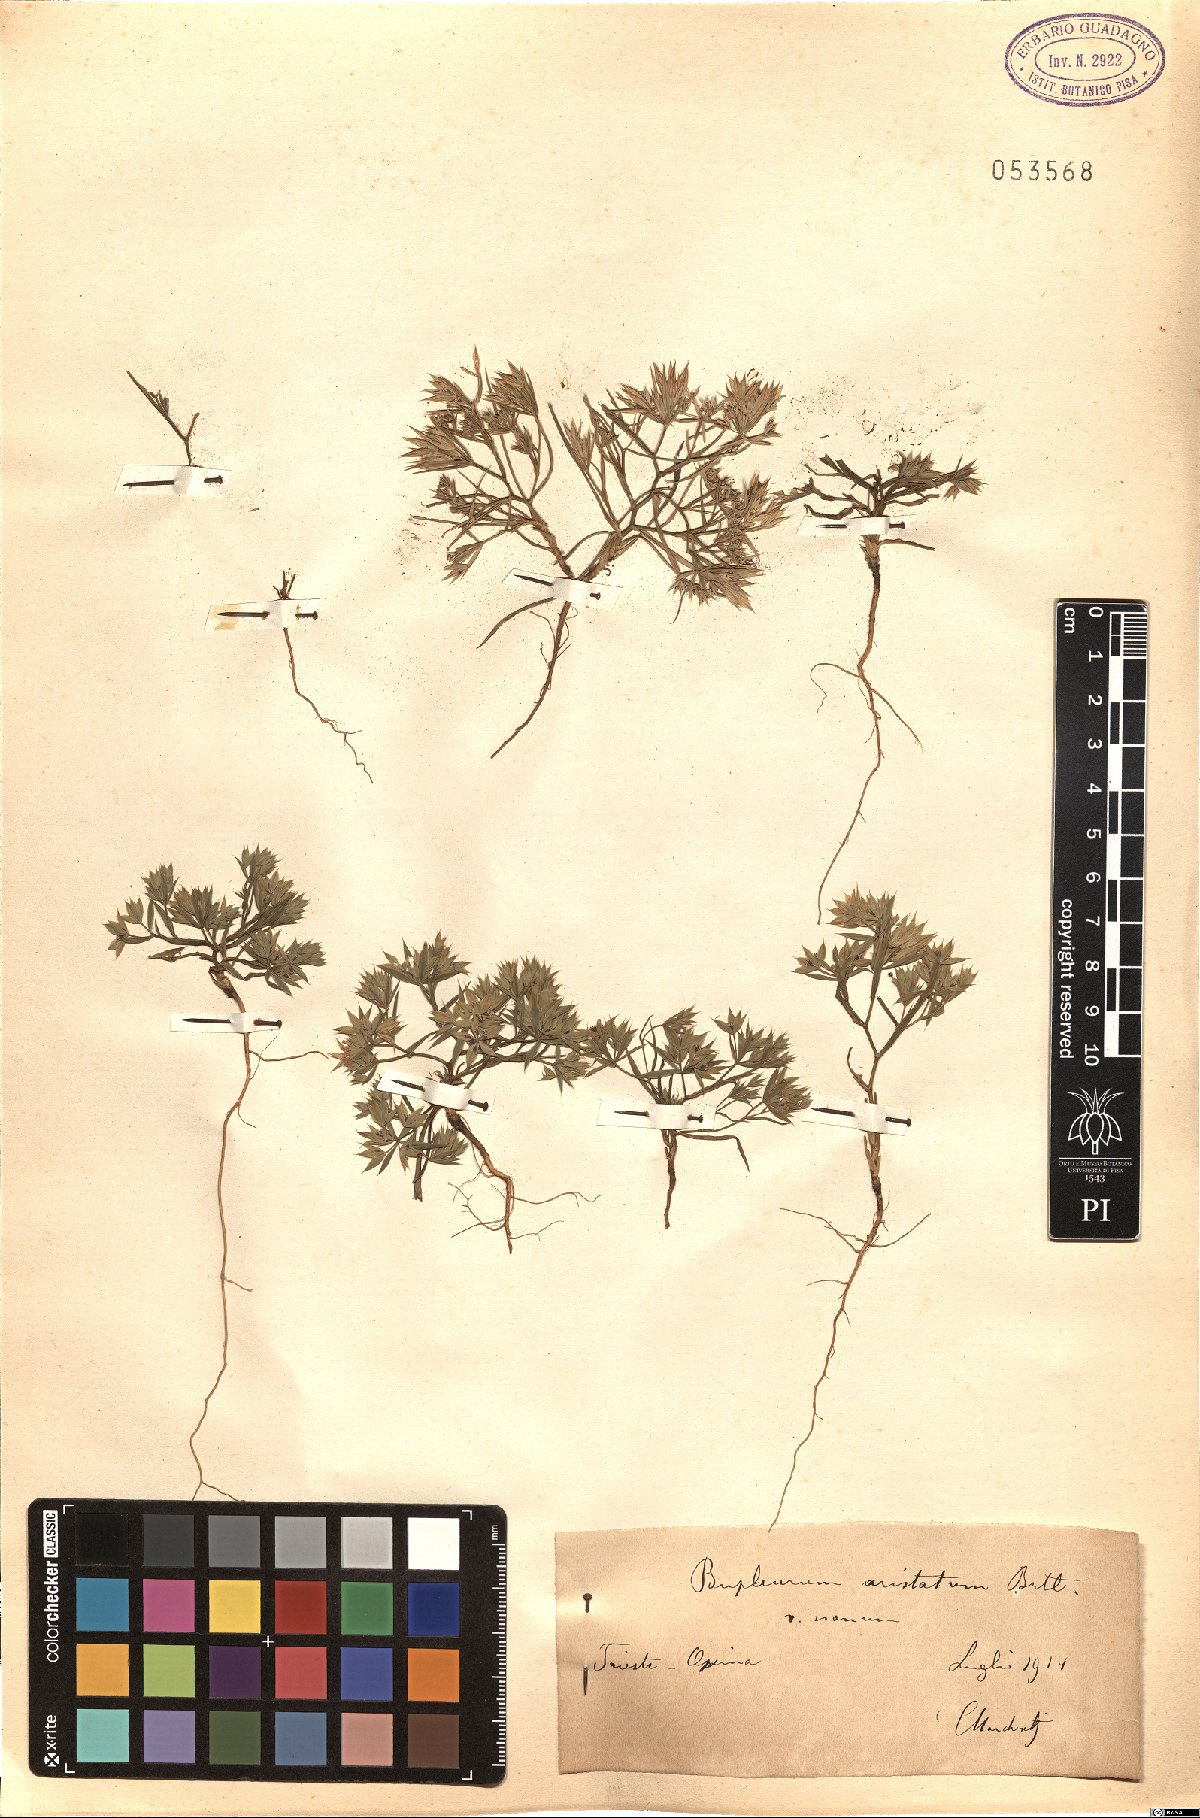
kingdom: Plantae
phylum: Tracheophyta
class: Magnoliopsida
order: Apiales
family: Apiaceae
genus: Bupleurum
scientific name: Bupleurum aristatum
